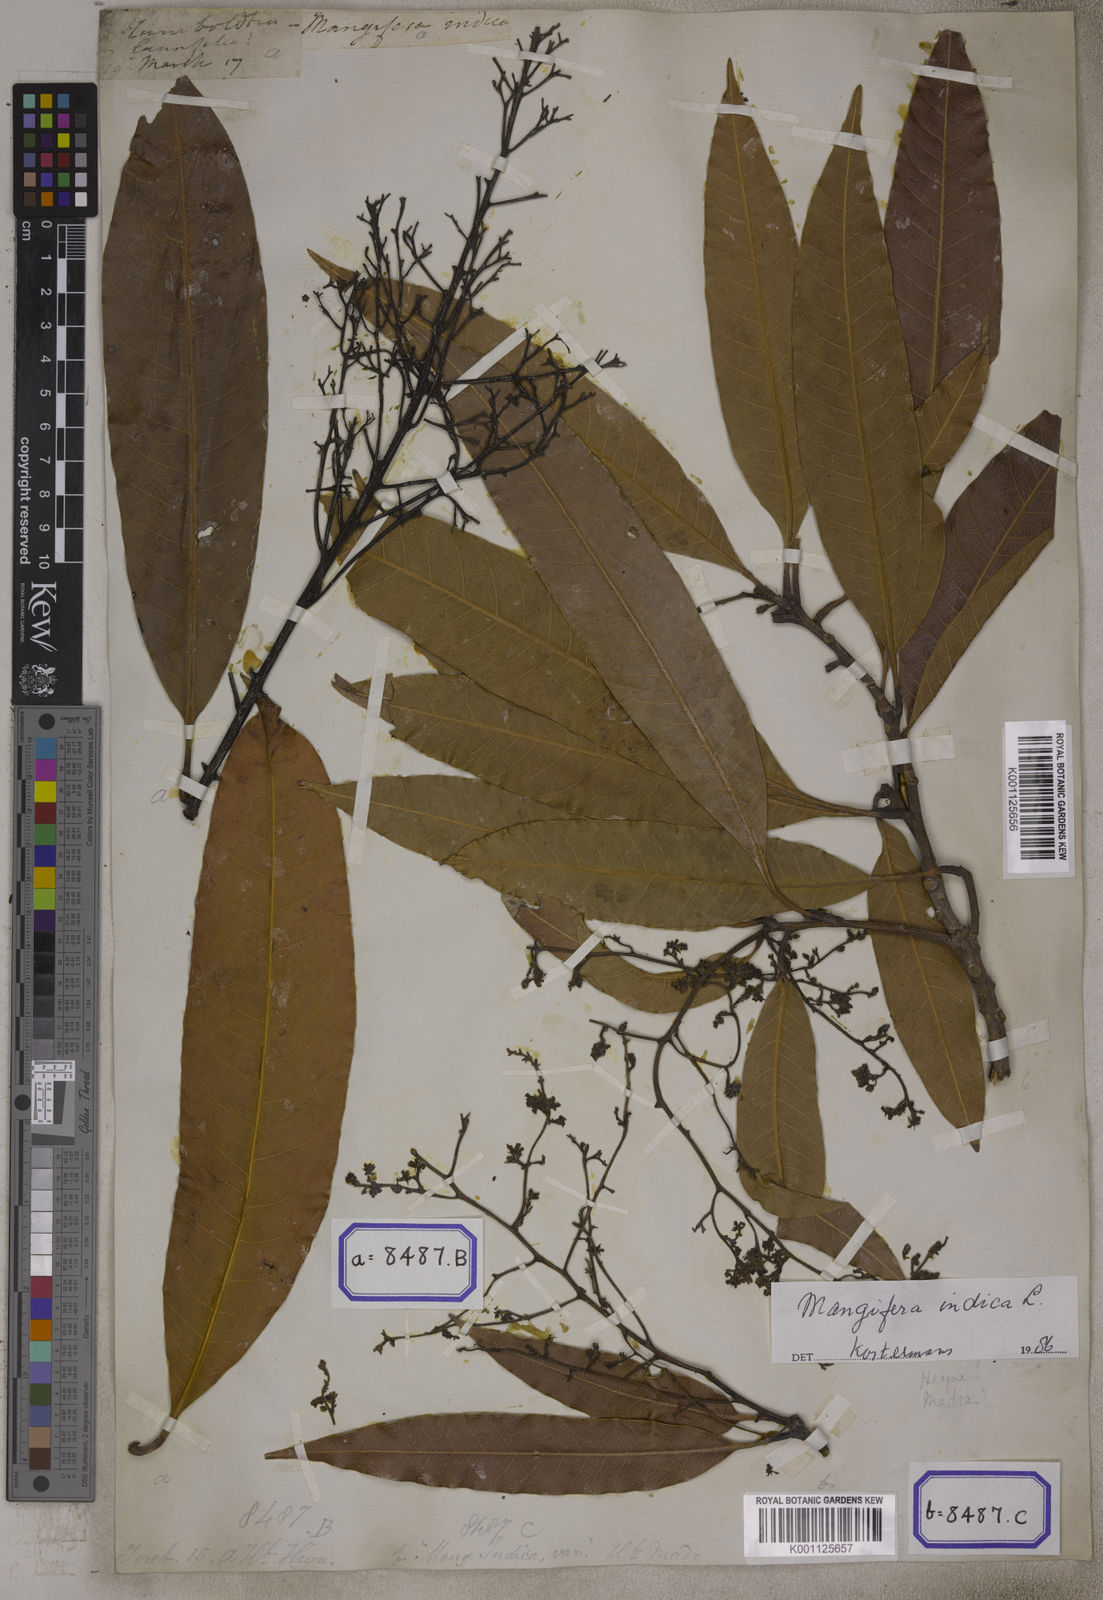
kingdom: Plantae
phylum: Tracheophyta
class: Magnoliopsida
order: Sapindales
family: Anacardiaceae
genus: Mangifera
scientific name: Mangifera indica
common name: Mango
